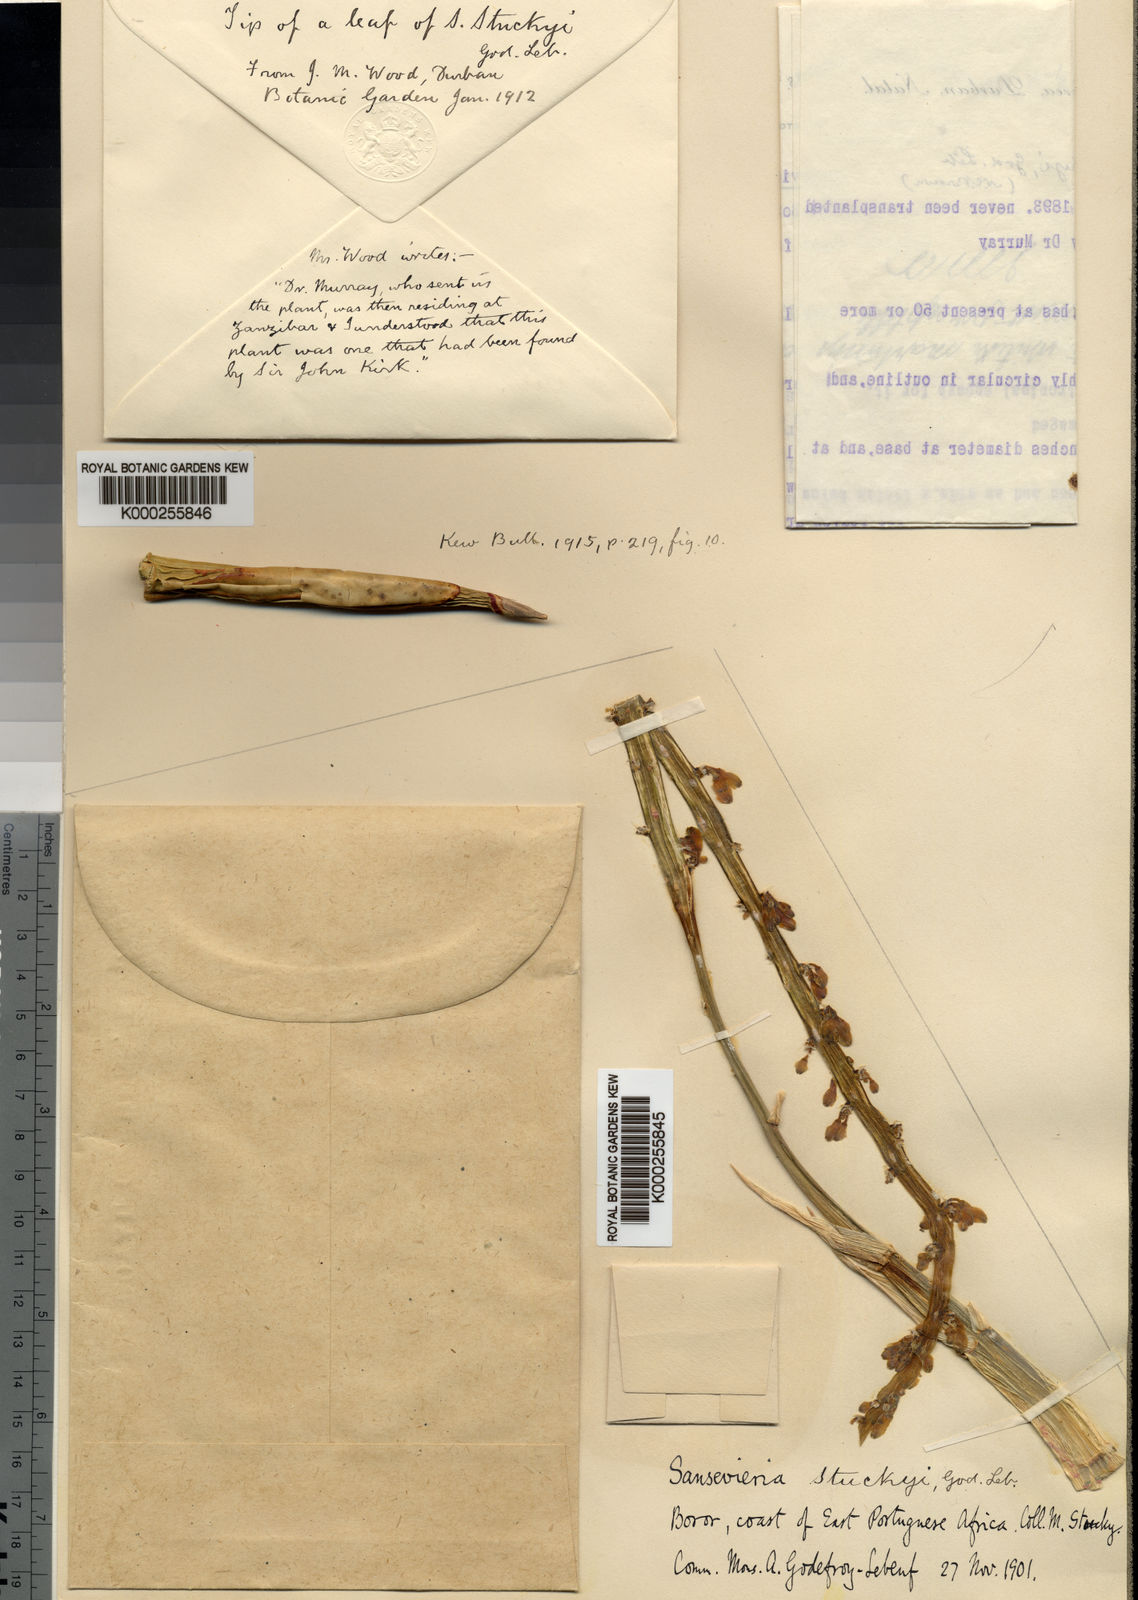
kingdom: Plantae
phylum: Tracheophyta
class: Liliopsida
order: Asparagales
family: Asparagaceae
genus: Dracaena
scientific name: Dracaena stuckyi
